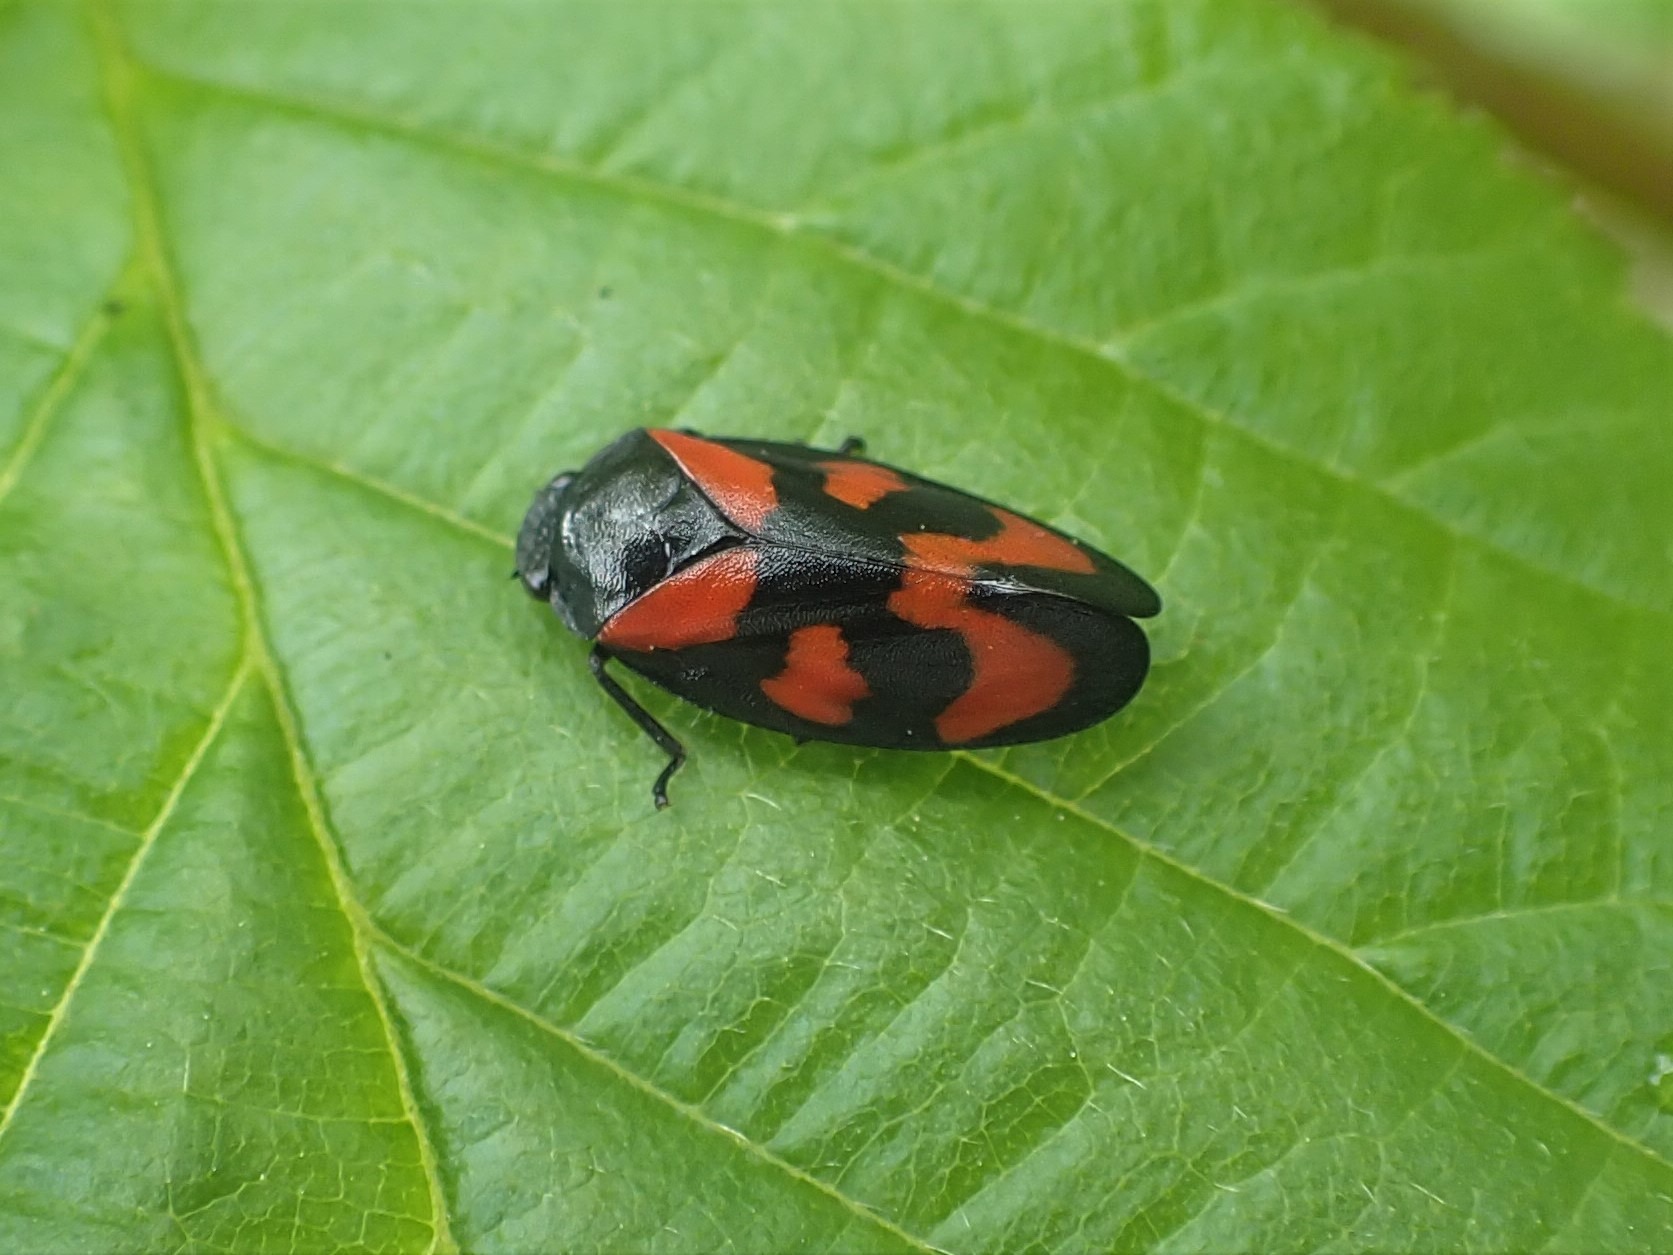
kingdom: Animalia
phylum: Arthropoda
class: Insecta
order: Hemiptera
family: Cercopidae
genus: Cercopis
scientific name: Cercopis vulnerata
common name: Blodcikade
